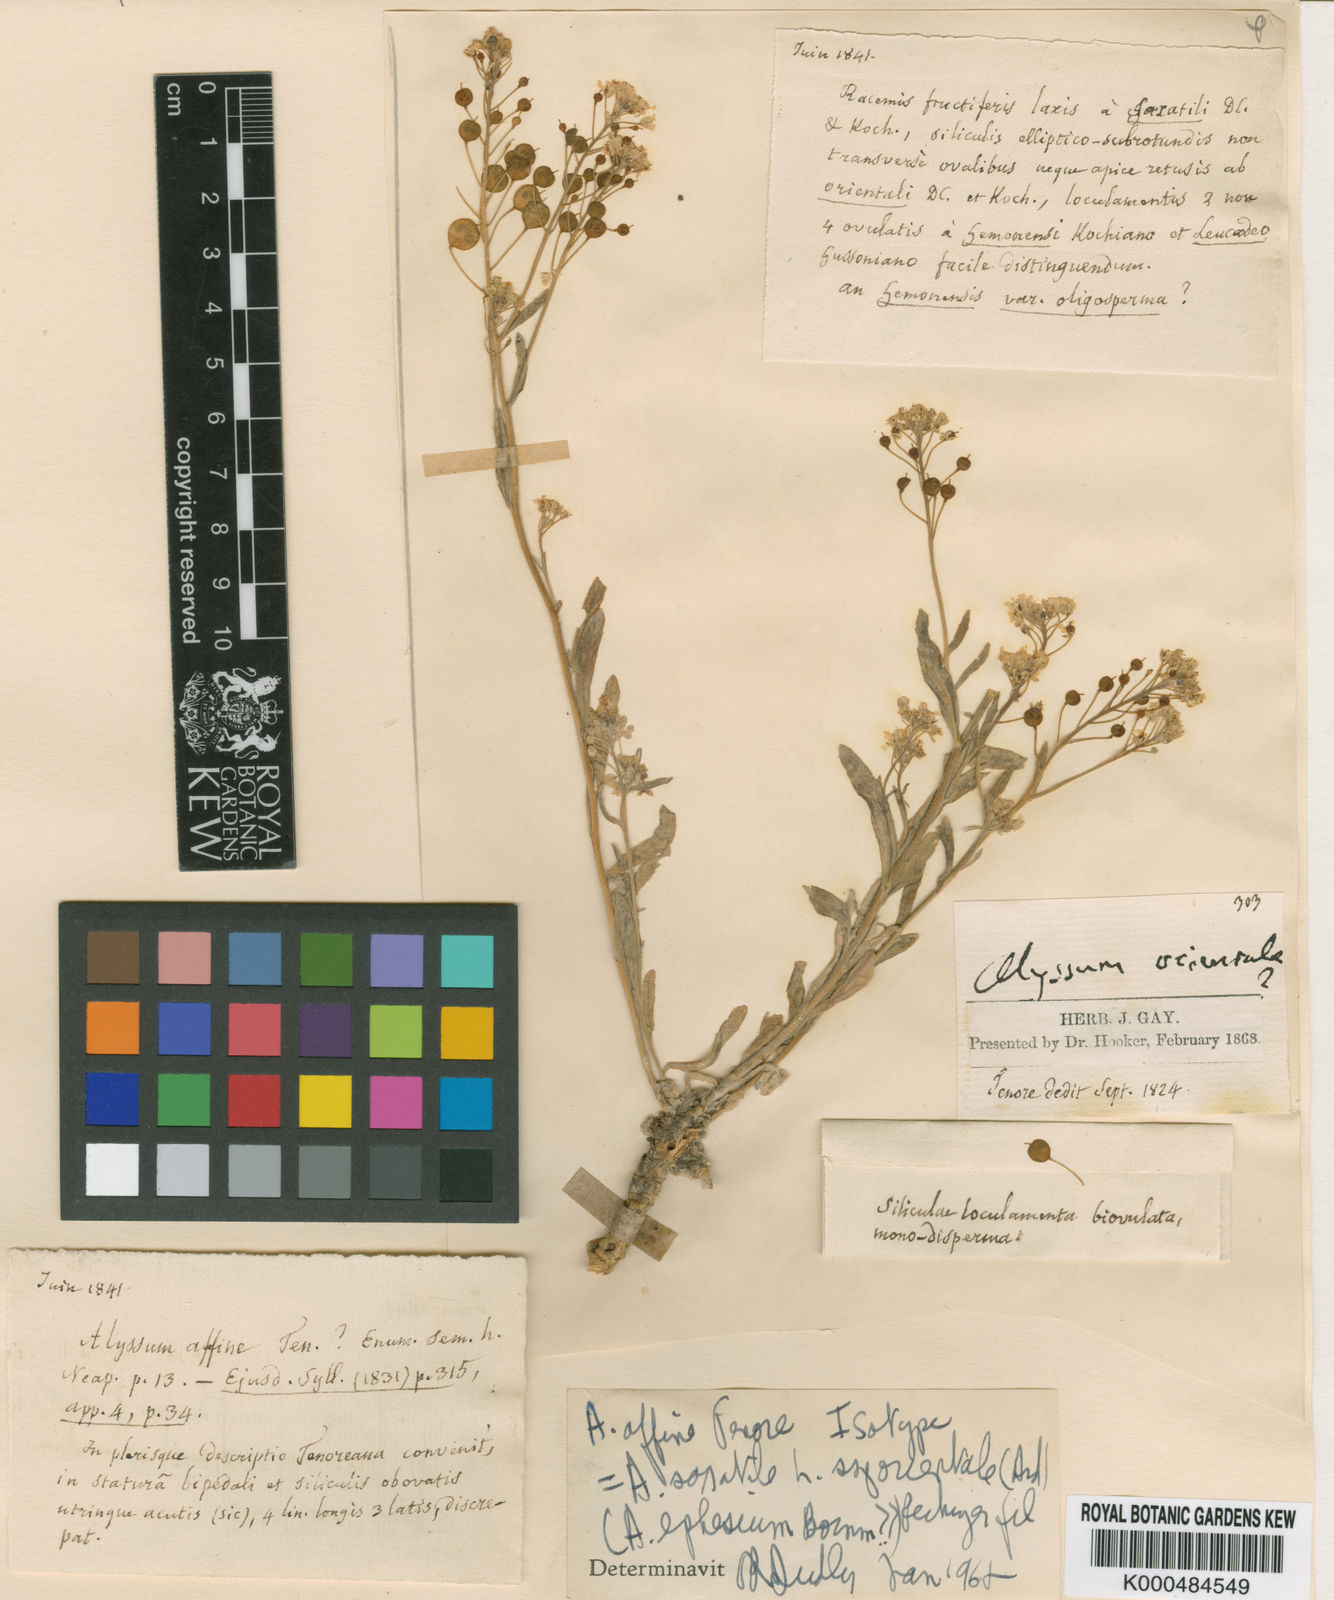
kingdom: Plantae
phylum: Tracheophyta
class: Magnoliopsida
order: Brassicales
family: Brassicaceae
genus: Aurinia
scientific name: Aurinia saxatilis
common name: Golden-tuft alyssum
